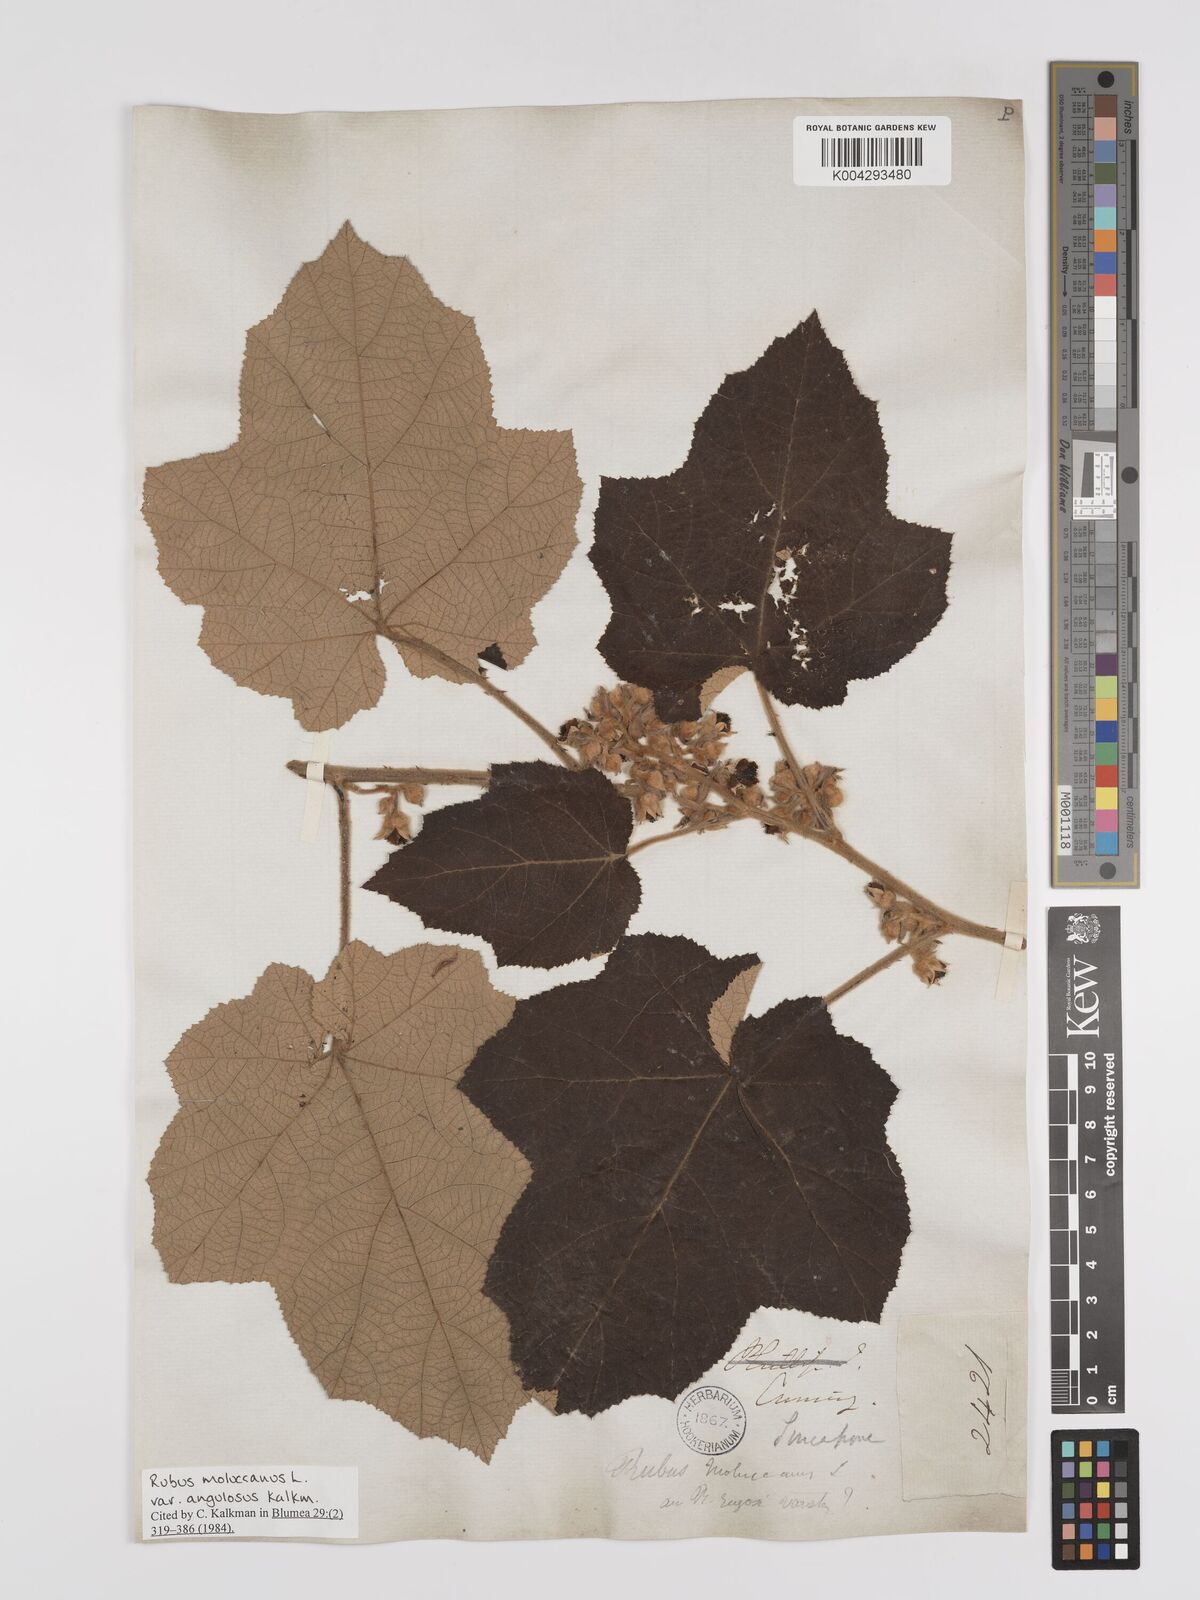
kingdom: Plantae
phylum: Tracheophyta
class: Magnoliopsida
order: Rosales
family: Rosaceae
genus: Rubus
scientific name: Rubus moluccanus
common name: Wild raspberry
